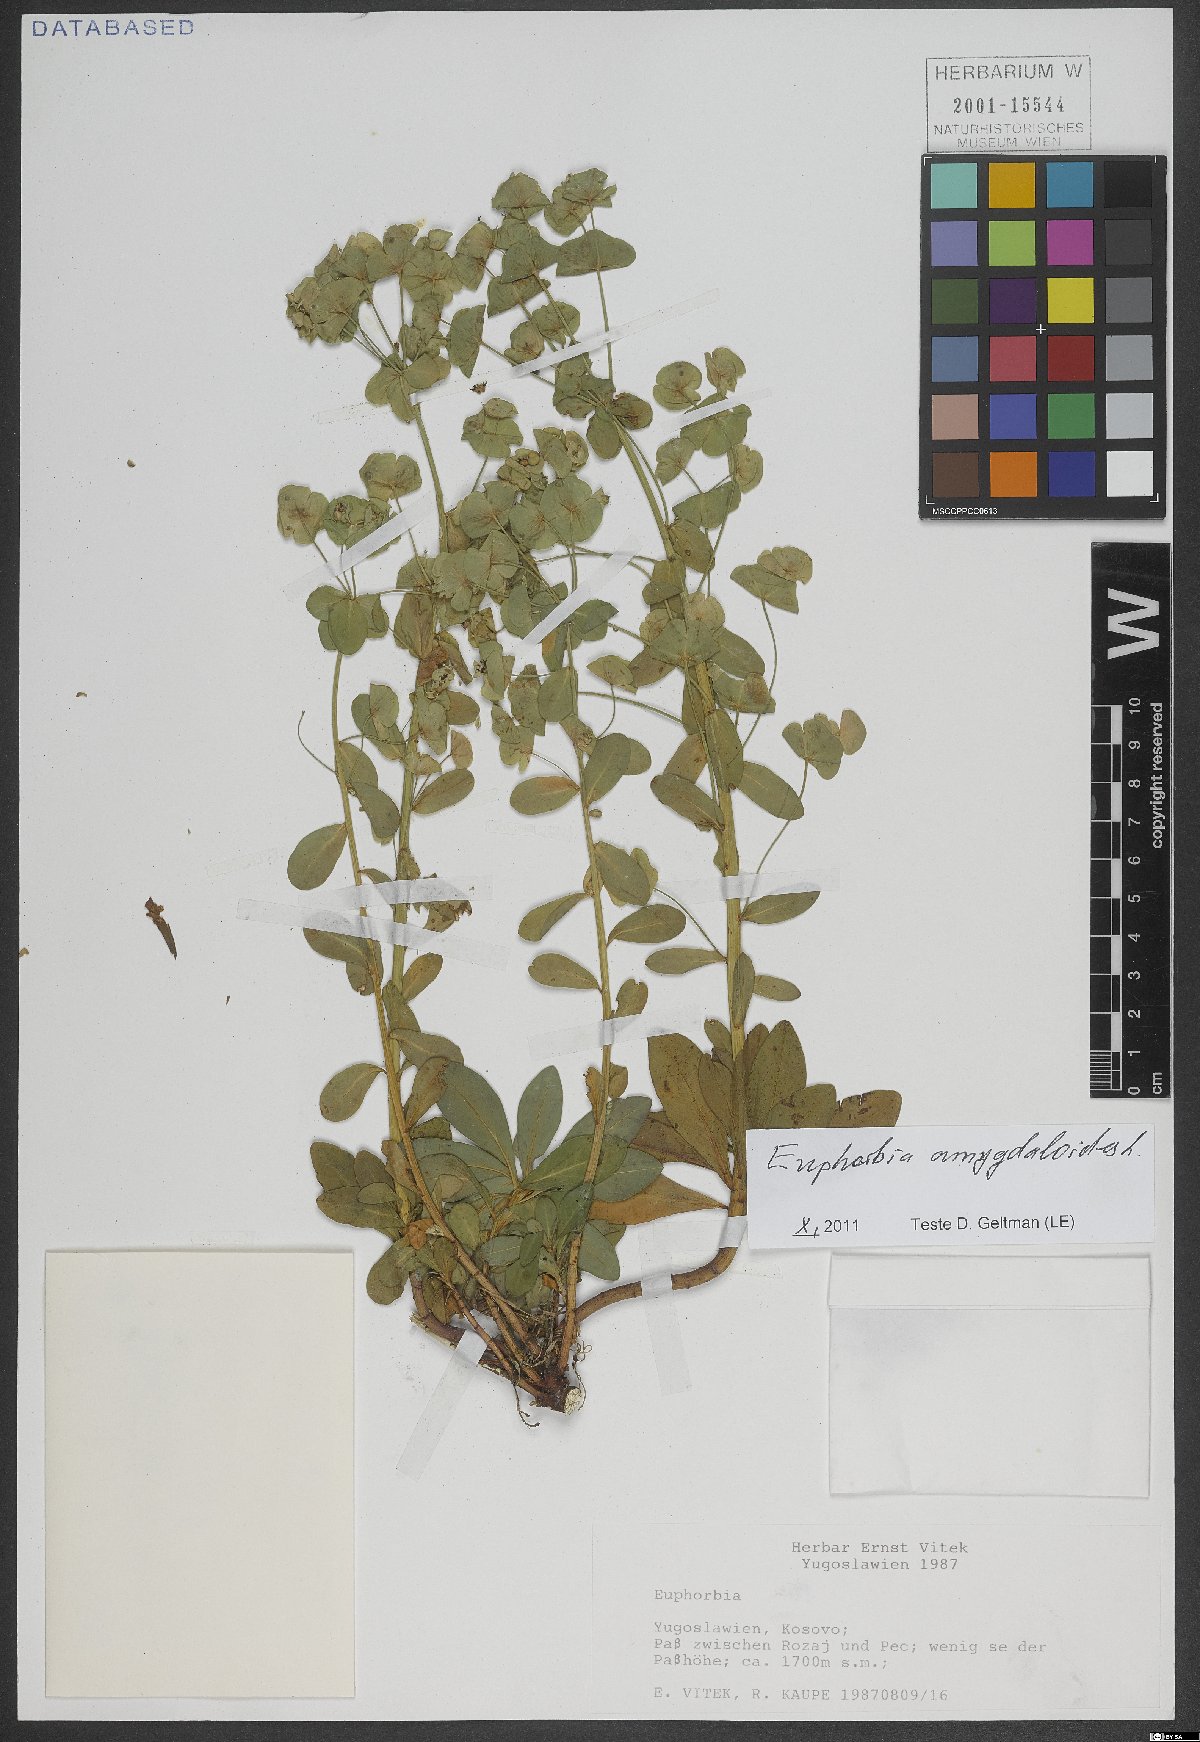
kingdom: Plantae
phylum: Tracheophyta
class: Magnoliopsida
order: Malpighiales
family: Euphorbiaceae
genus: Euphorbia
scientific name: Euphorbia amygdaloides
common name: Wood spurge
